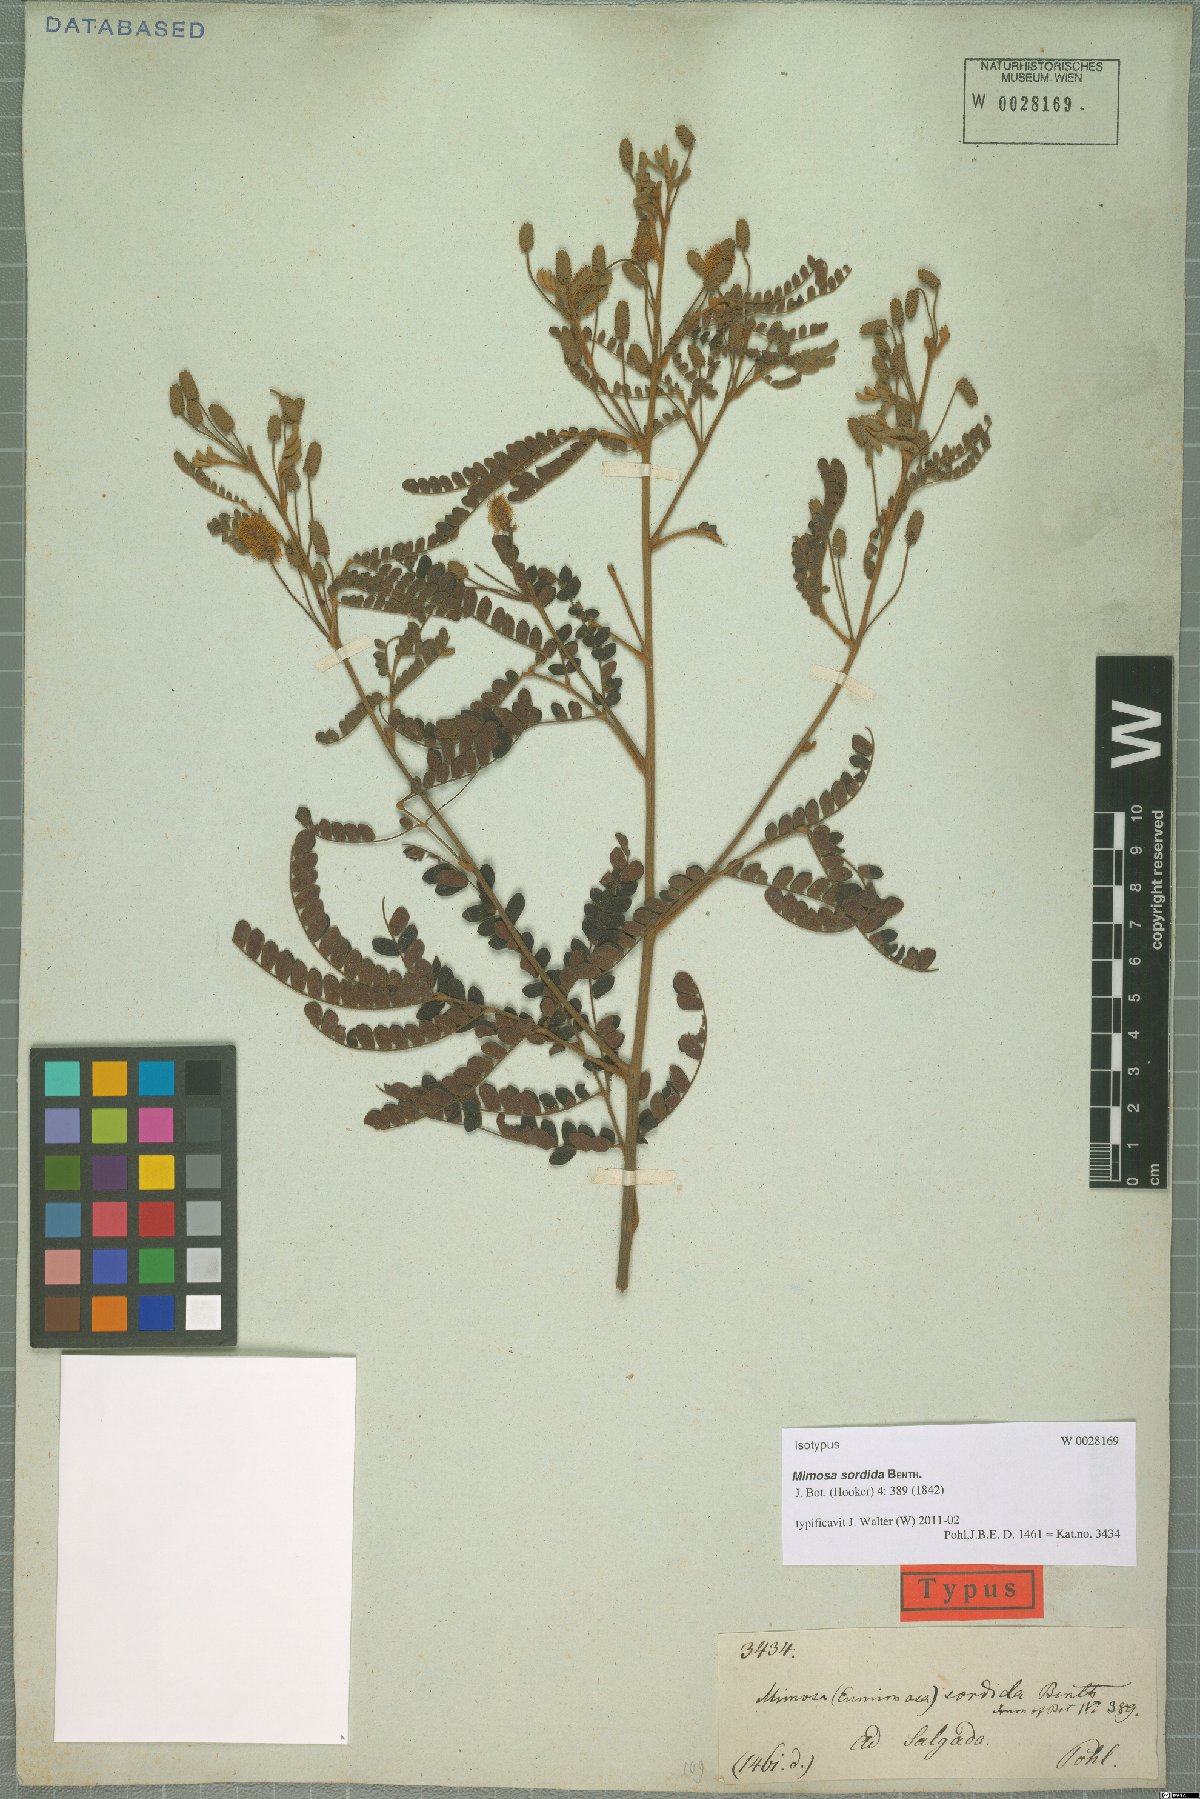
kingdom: Plantae
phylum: Tracheophyta
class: Magnoliopsida
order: Fabales
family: Fabaceae
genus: Mimosa
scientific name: Mimosa aurivillus
